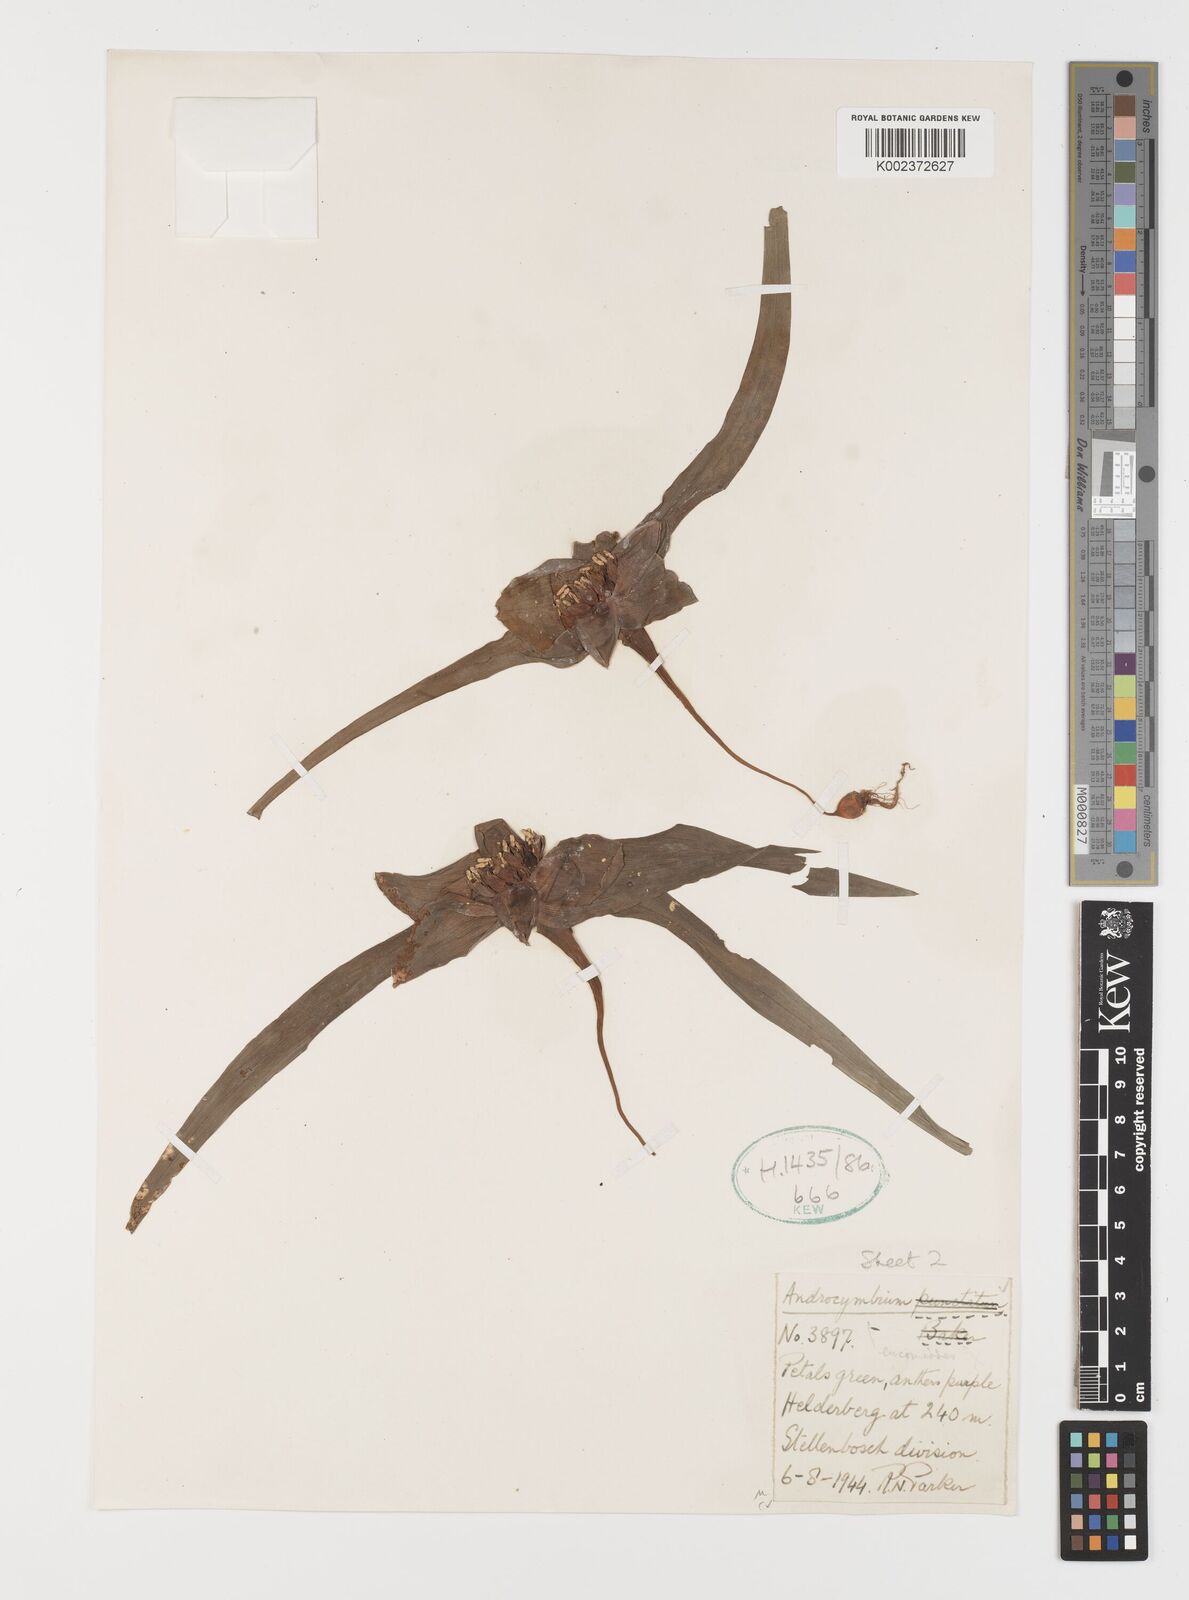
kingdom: Plantae
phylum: Tracheophyta
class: Liliopsida
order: Liliales
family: Colchicaceae
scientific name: Colchicaceae
